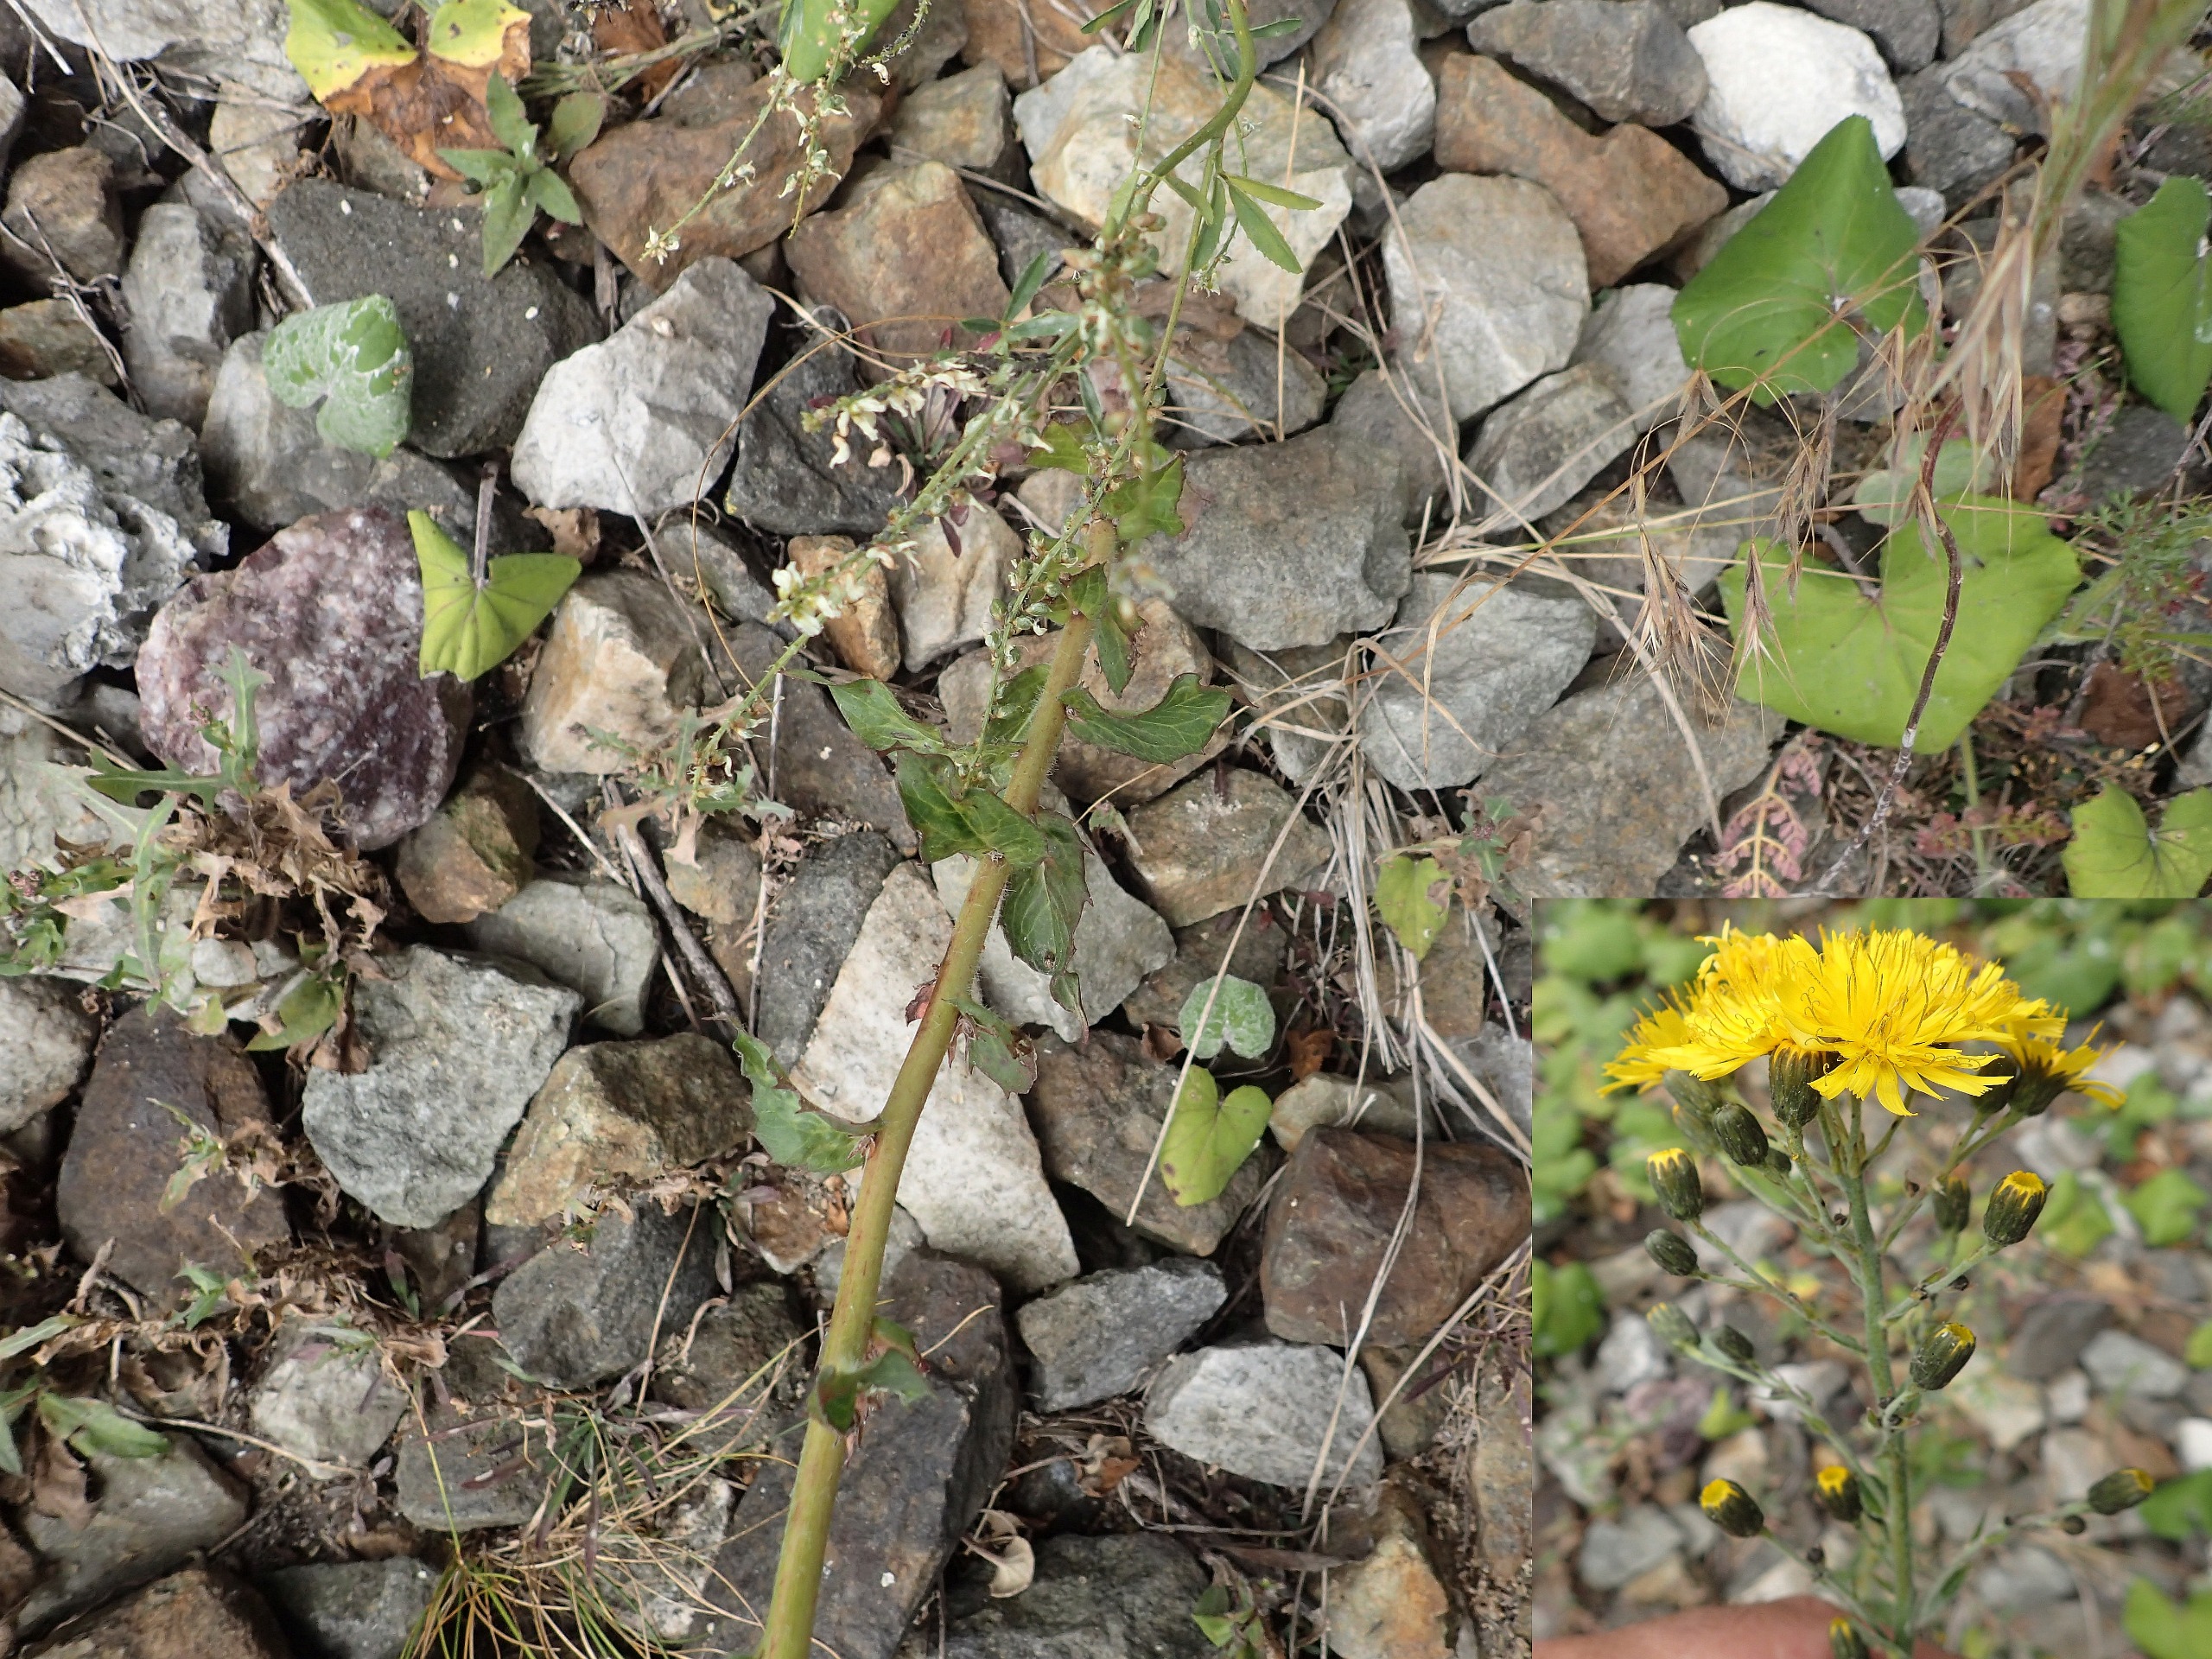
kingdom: Plantae
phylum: Tracheophyta
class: Magnoliopsida
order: Asterales
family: Asteraceae
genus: Hieracium
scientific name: Hieracium sabaudum
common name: Bredbladet høgeurt
